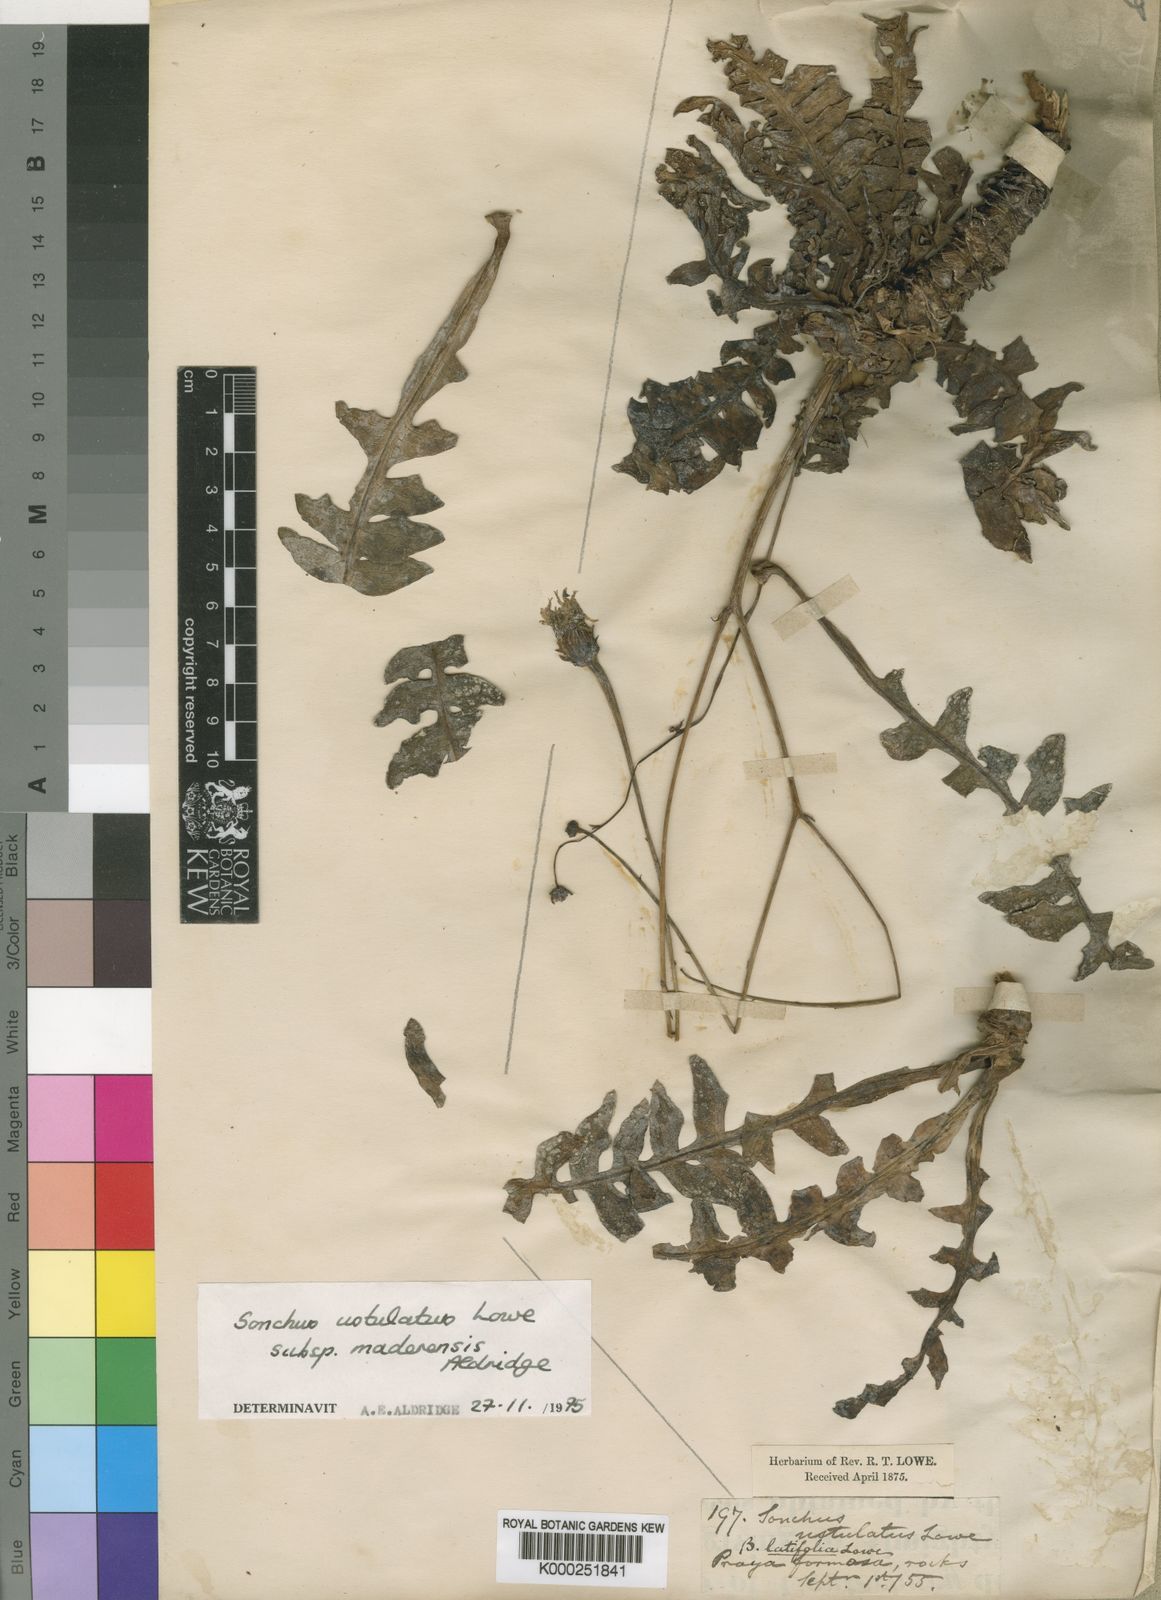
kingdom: Plantae
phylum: Tracheophyta
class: Magnoliopsida
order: Asterales
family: Asteraceae
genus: Sonchus
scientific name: Sonchus ustulatus
